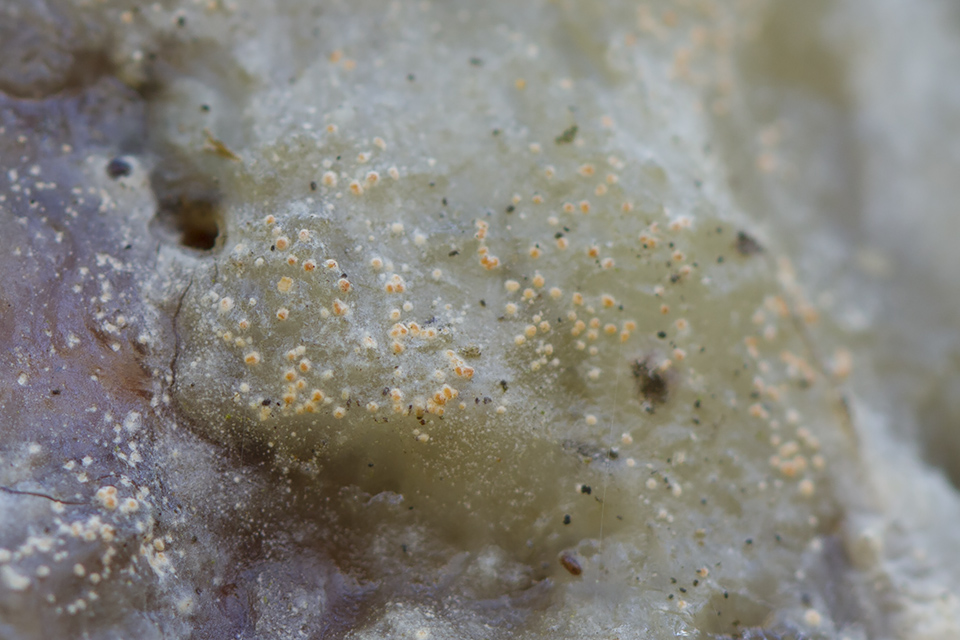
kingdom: Fungi
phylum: Ascomycota
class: Sareomycetes
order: Sareales
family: Sareaceae
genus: Sarea
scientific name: Sarea resinae
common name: orangegul harpiksskive
